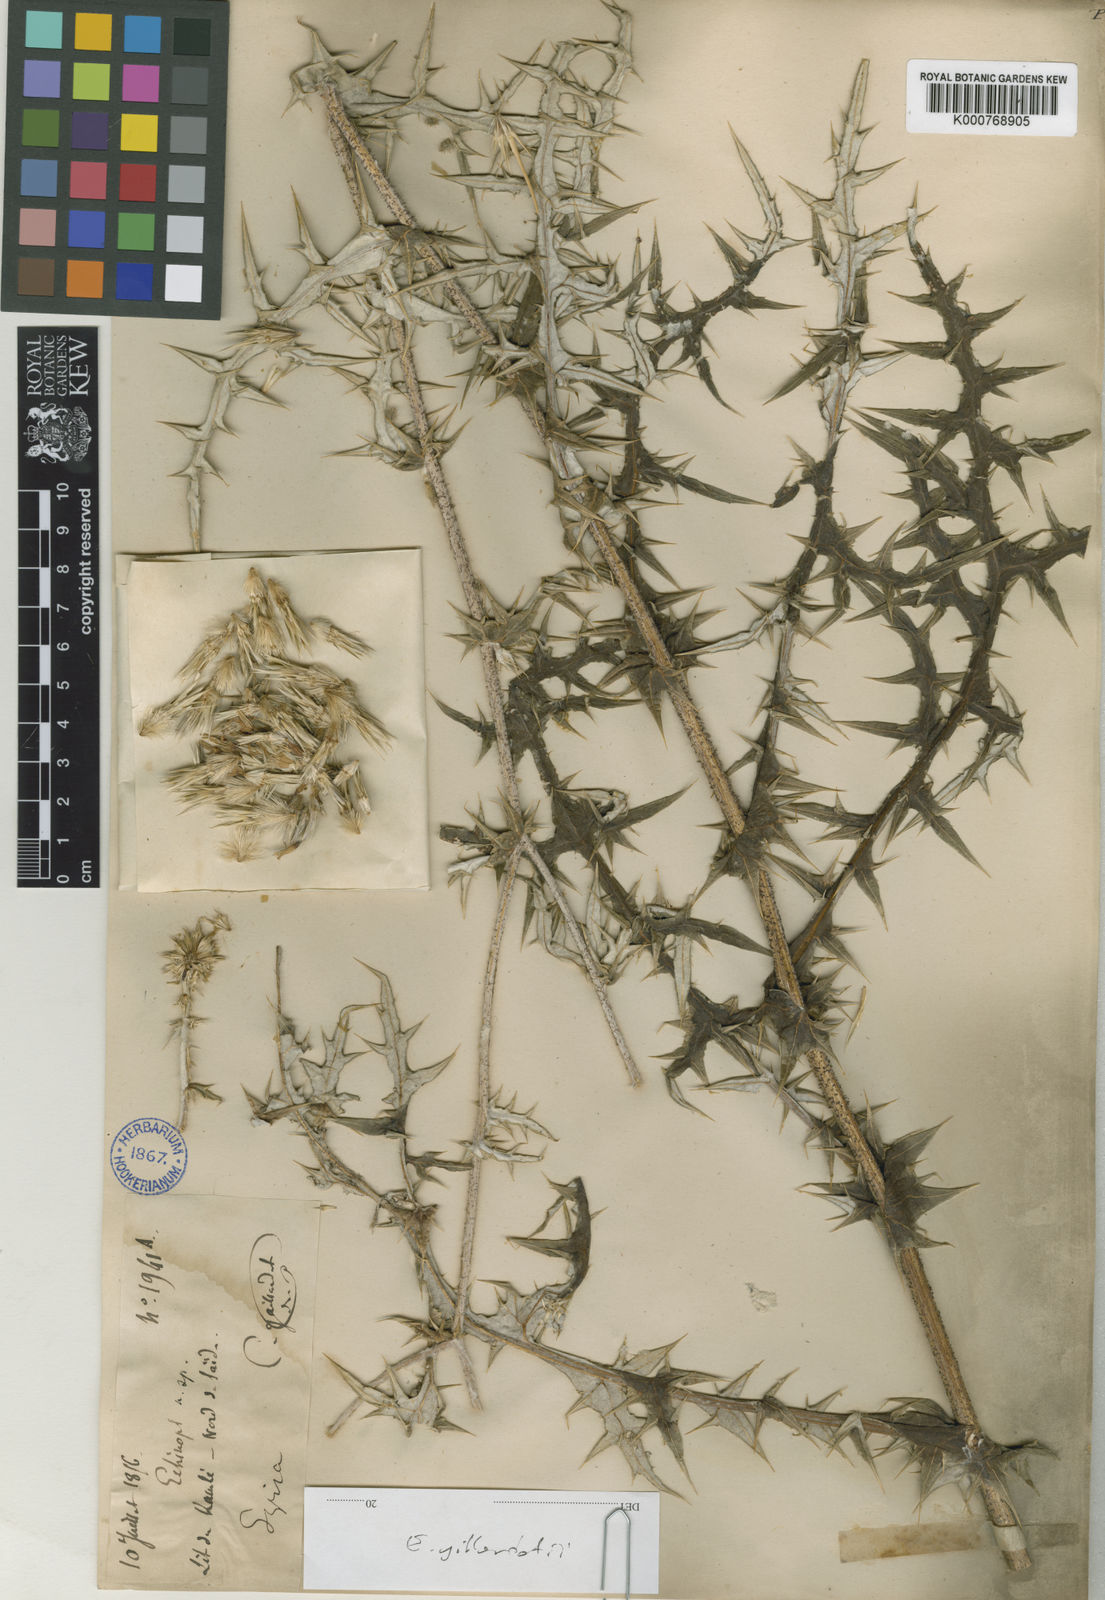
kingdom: Plantae
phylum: Tracheophyta
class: Magnoliopsida
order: Asterales
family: Asteraceae
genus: Echinops
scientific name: Echinops gaillardotii
